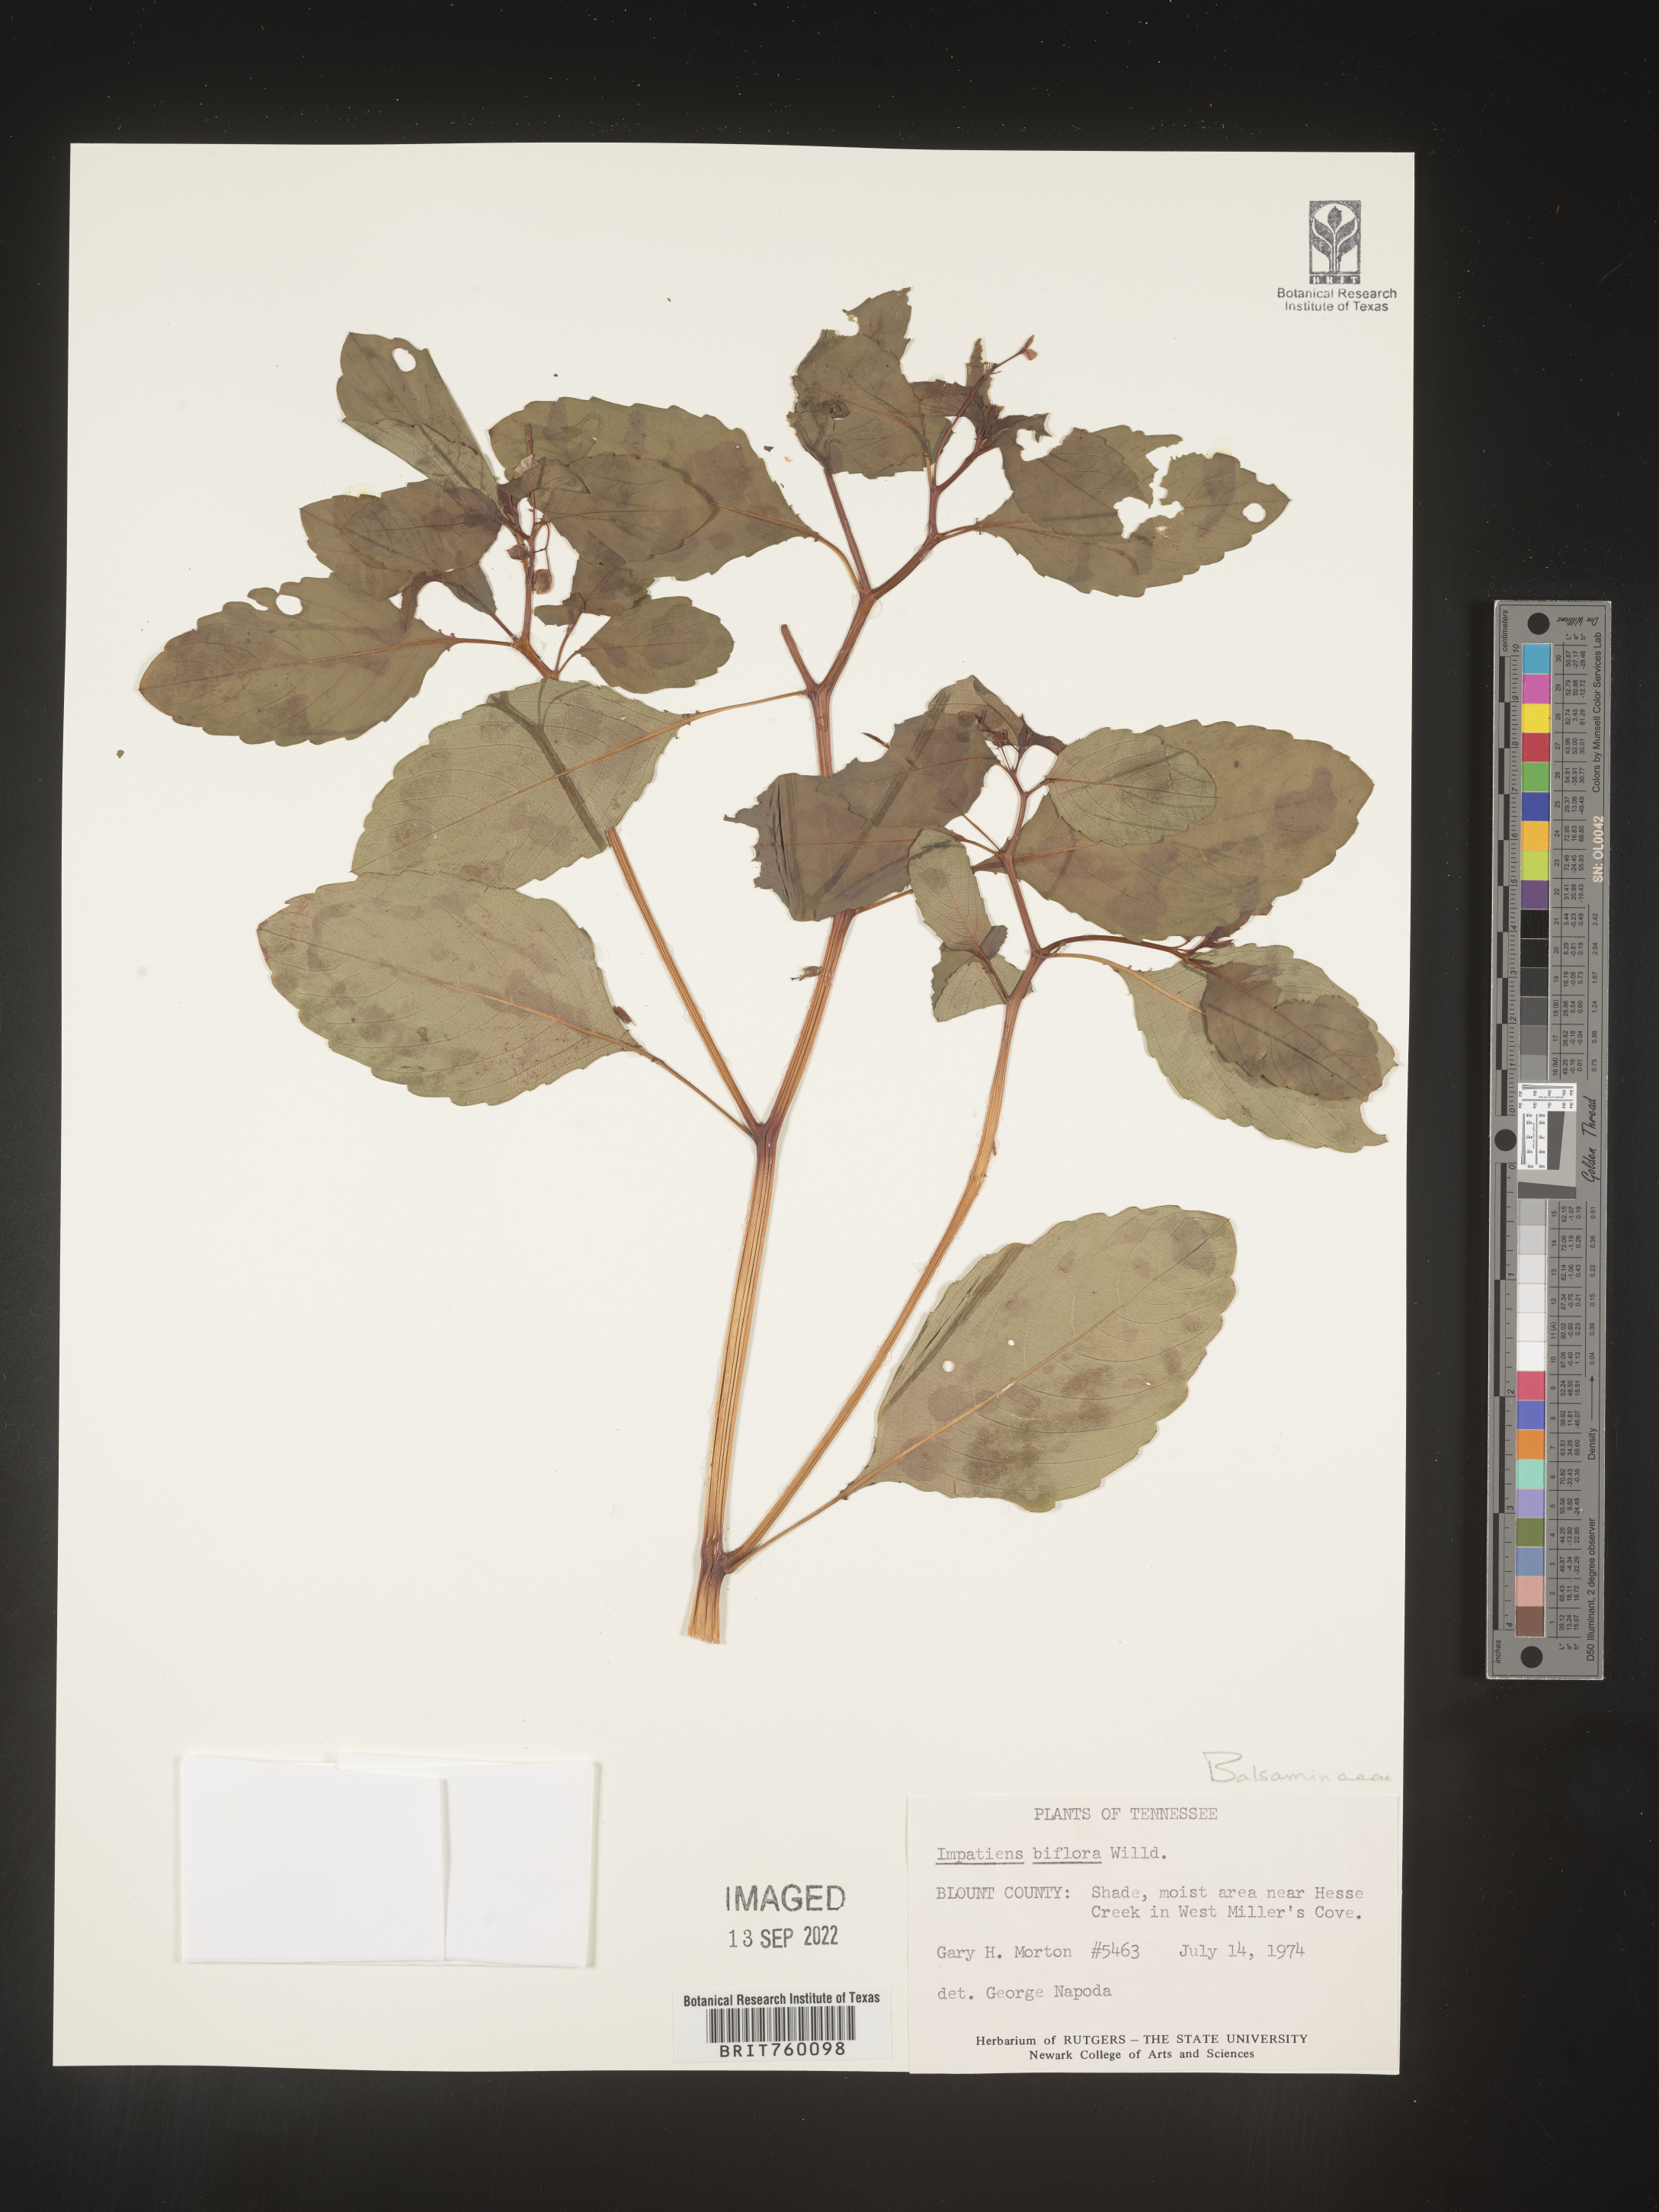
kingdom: Plantae
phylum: Tracheophyta
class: Magnoliopsida
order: Ericales
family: Balsaminaceae
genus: Impatiens
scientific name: Impatiens
